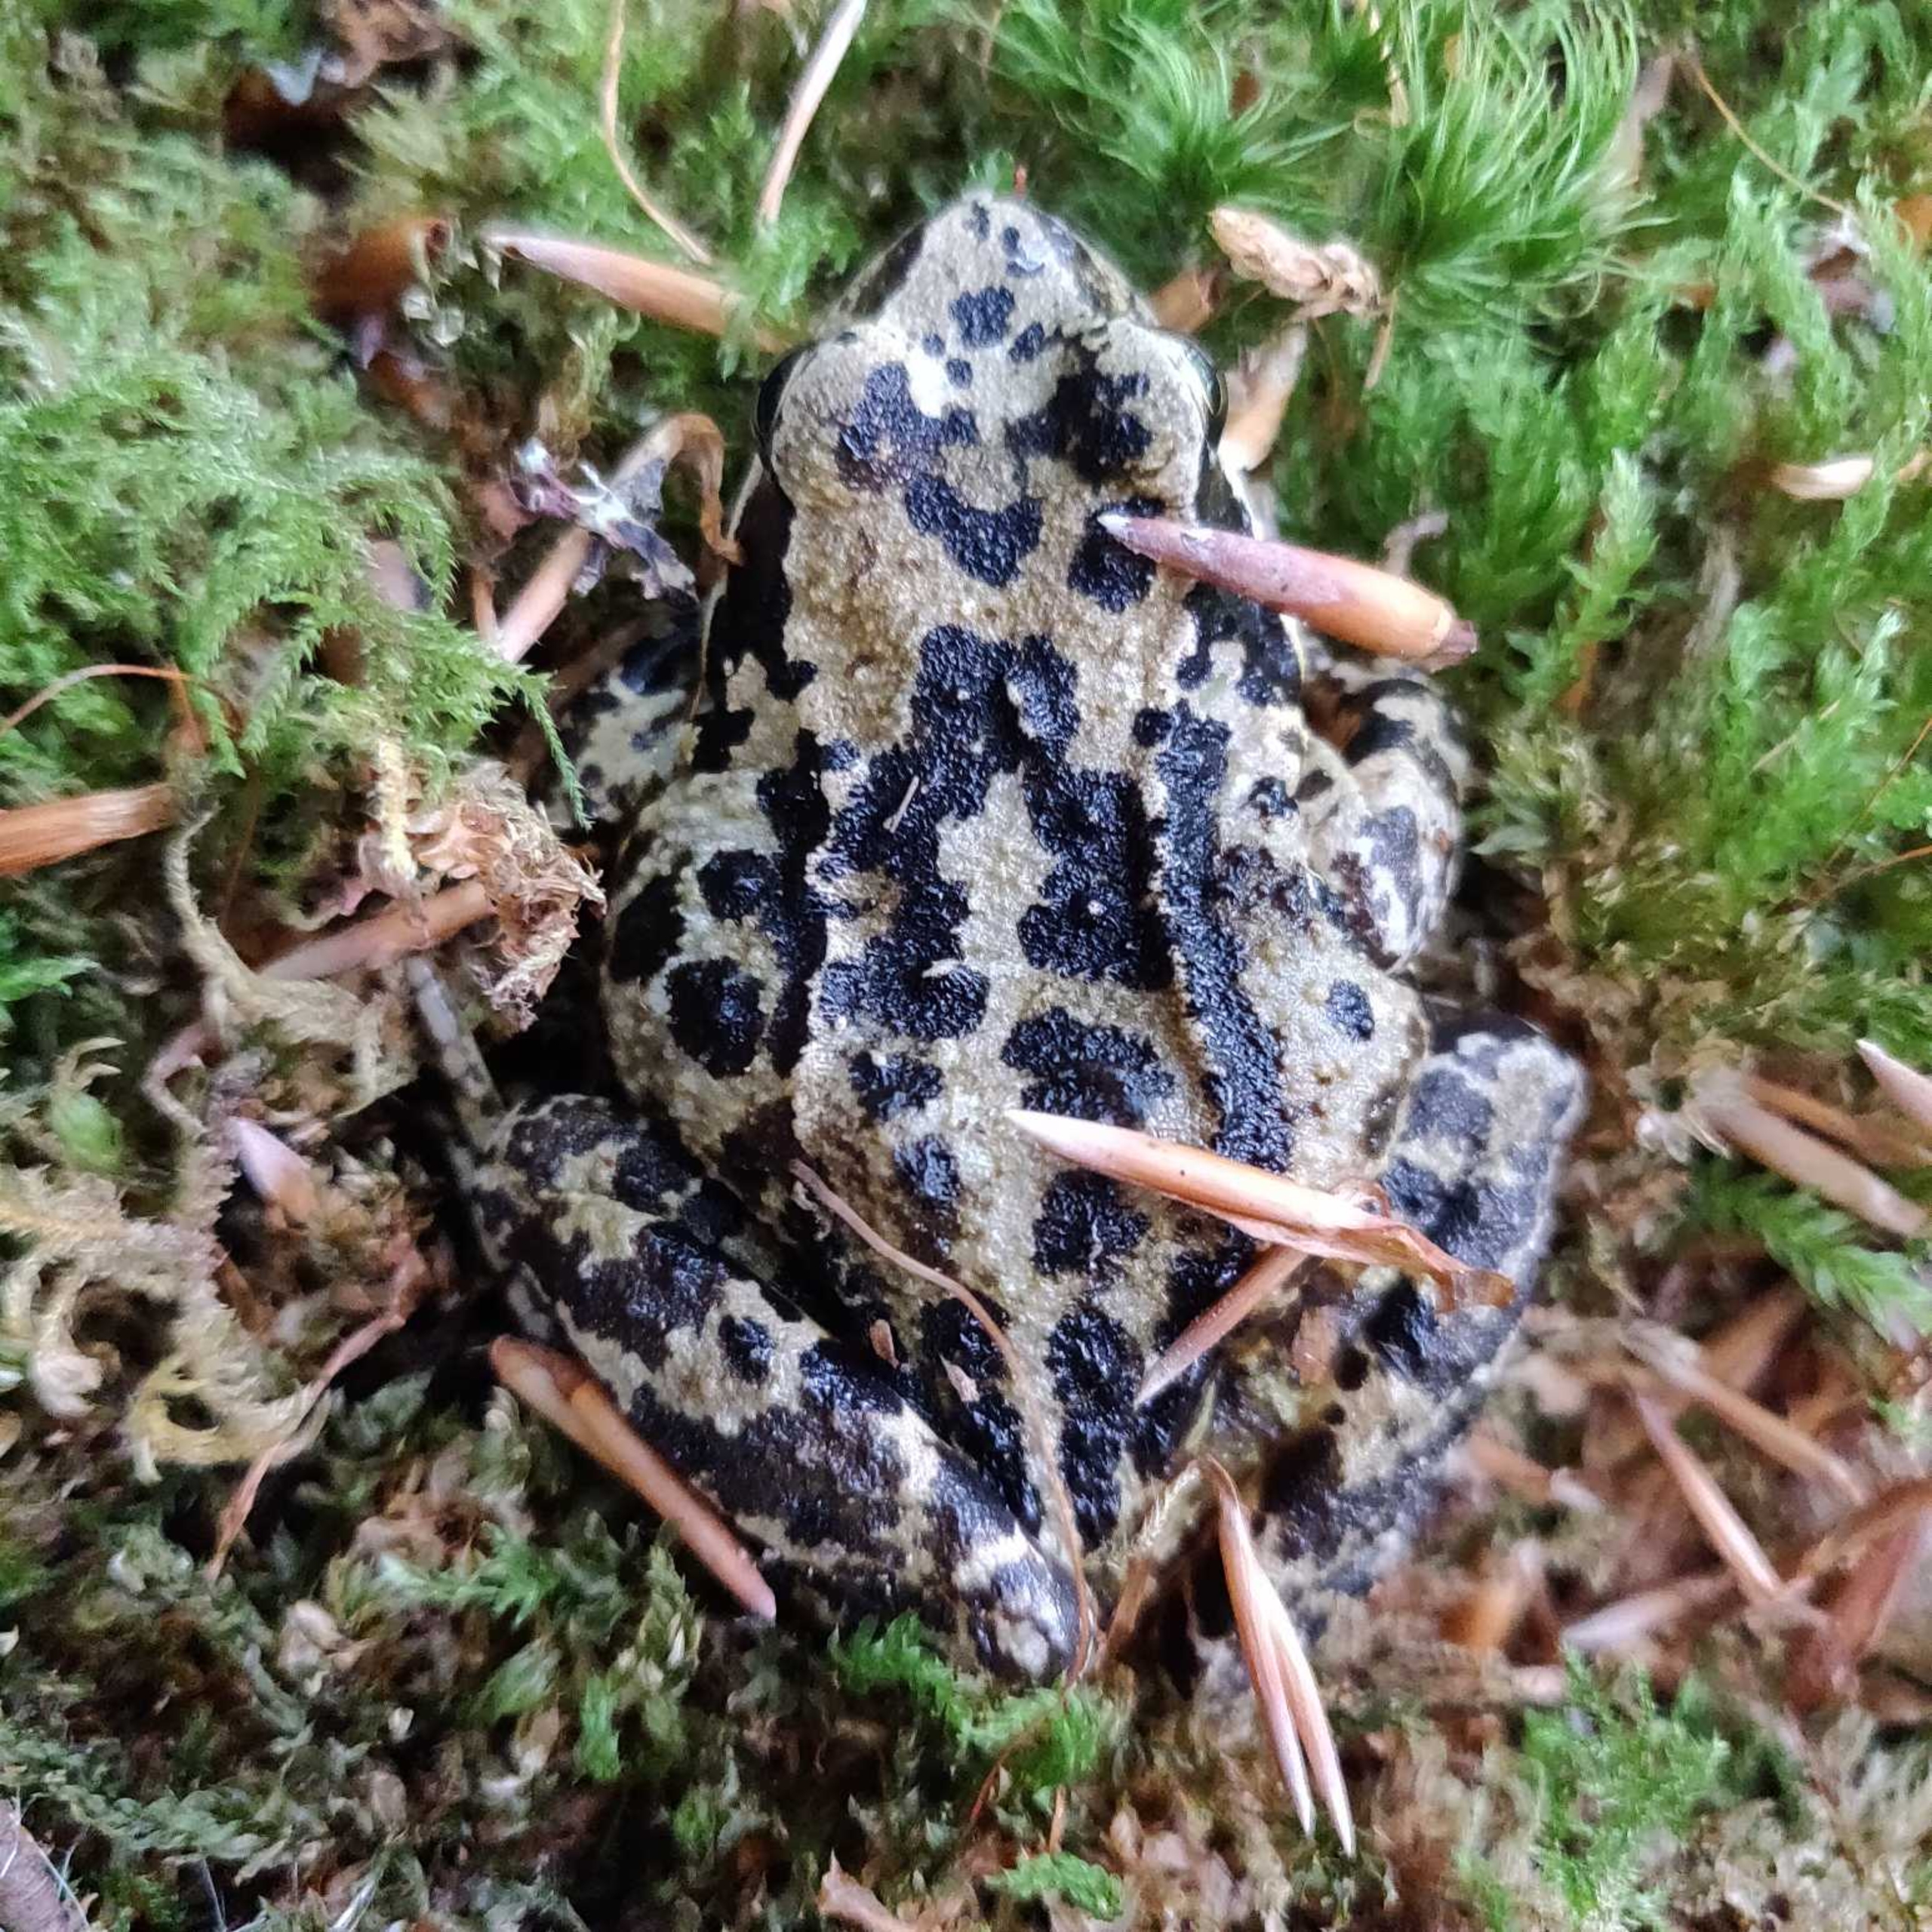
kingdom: Animalia
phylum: Chordata
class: Amphibia
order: Anura
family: Ranidae
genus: Rana
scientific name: Rana temporaria
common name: Butsnudet frø
